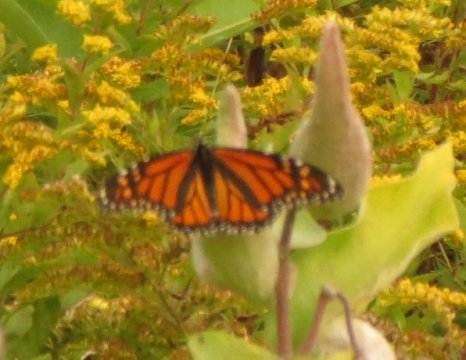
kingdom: Animalia
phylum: Arthropoda
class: Insecta
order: Lepidoptera
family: Nymphalidae
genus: Danaus
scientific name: Danaus plexippus
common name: Monarch
